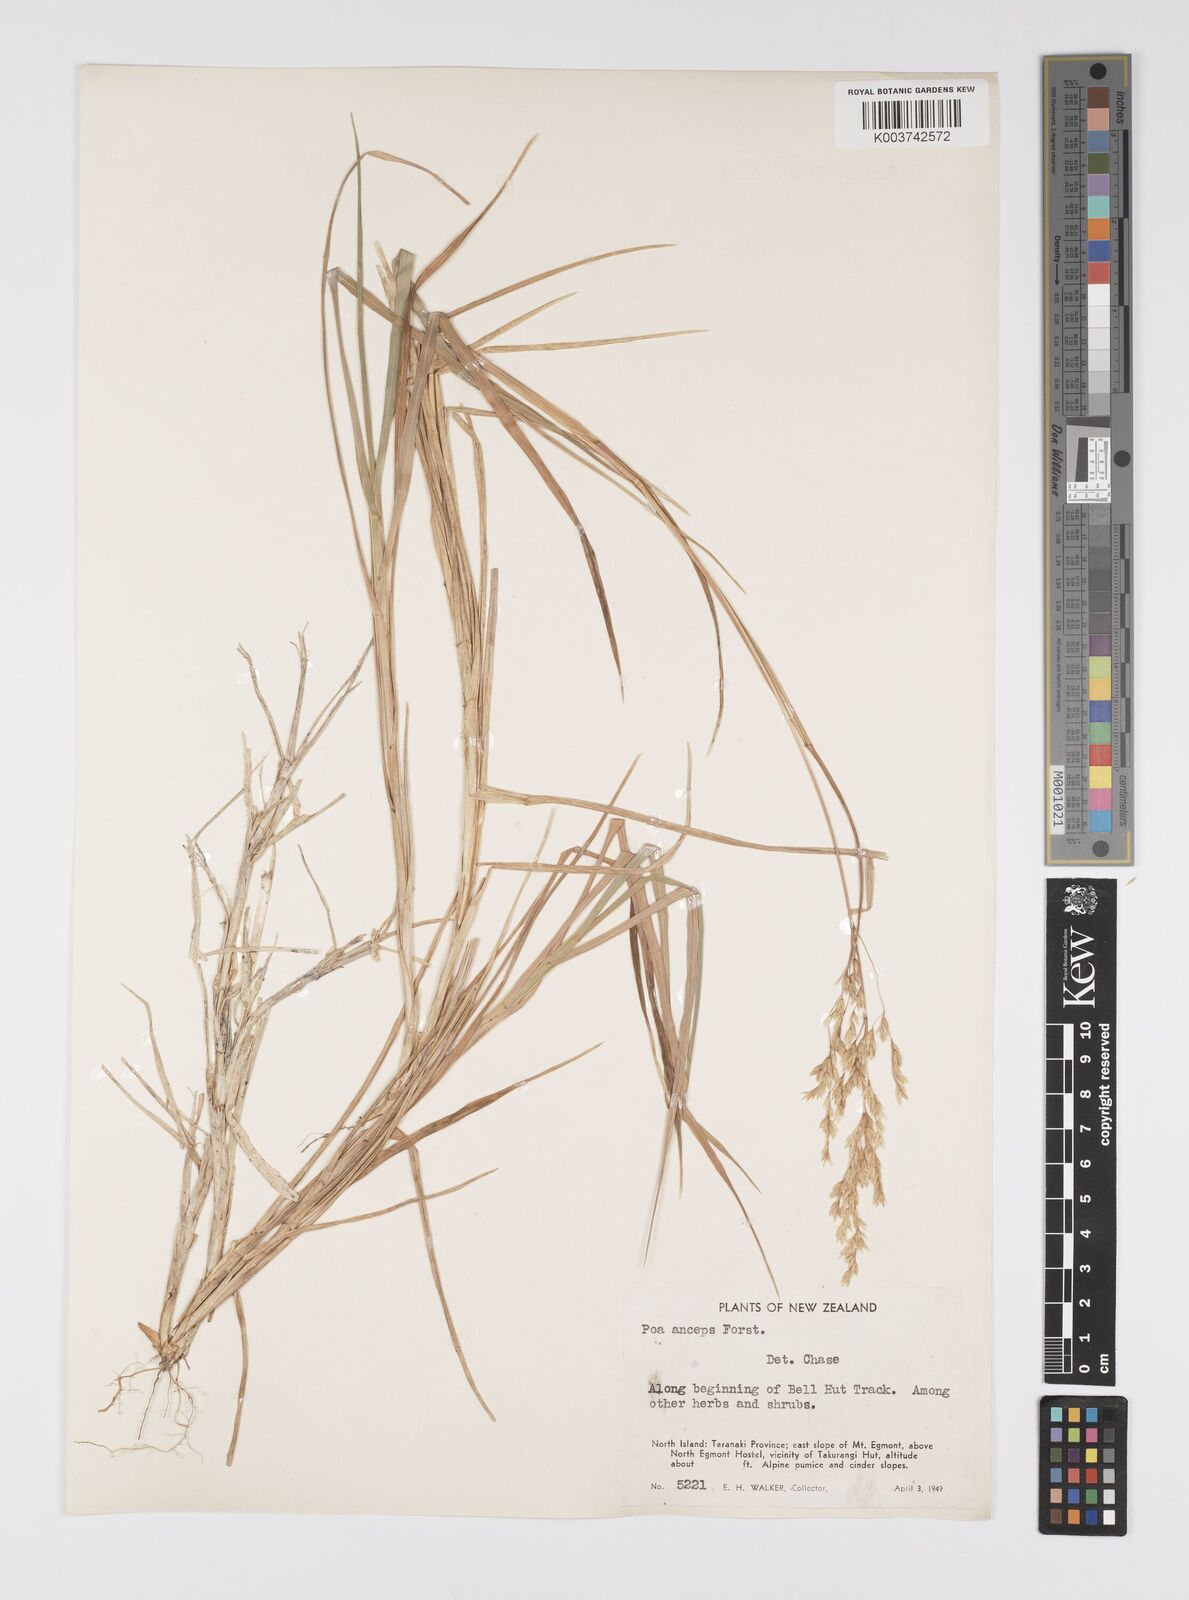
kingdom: Plantae
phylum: Tracheophyta
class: Liliopsida
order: Poales
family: Poaceae
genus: Poa
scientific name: Poa anceps
